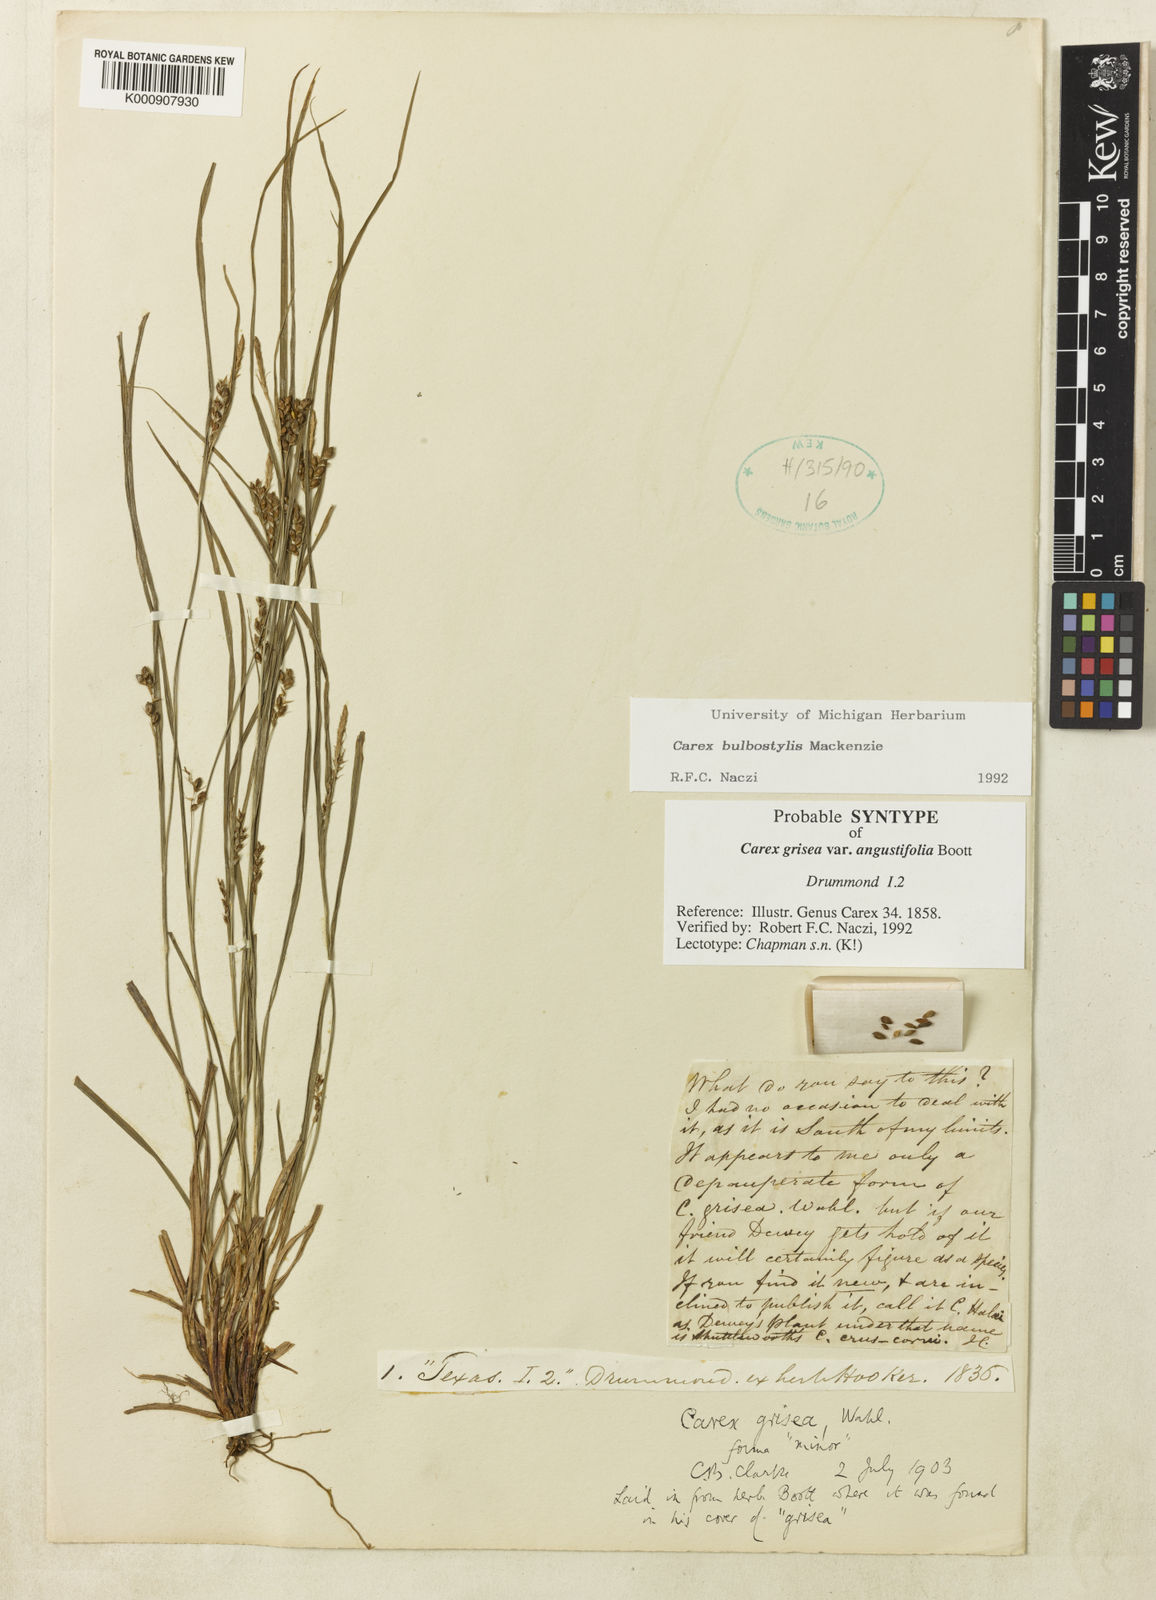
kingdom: Plantae
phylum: Tracheophyta
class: Liliopsida
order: Poales
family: Cyperaceae
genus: Carex
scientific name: Carex bulbostylis
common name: Eastern narrowleaf sedge
